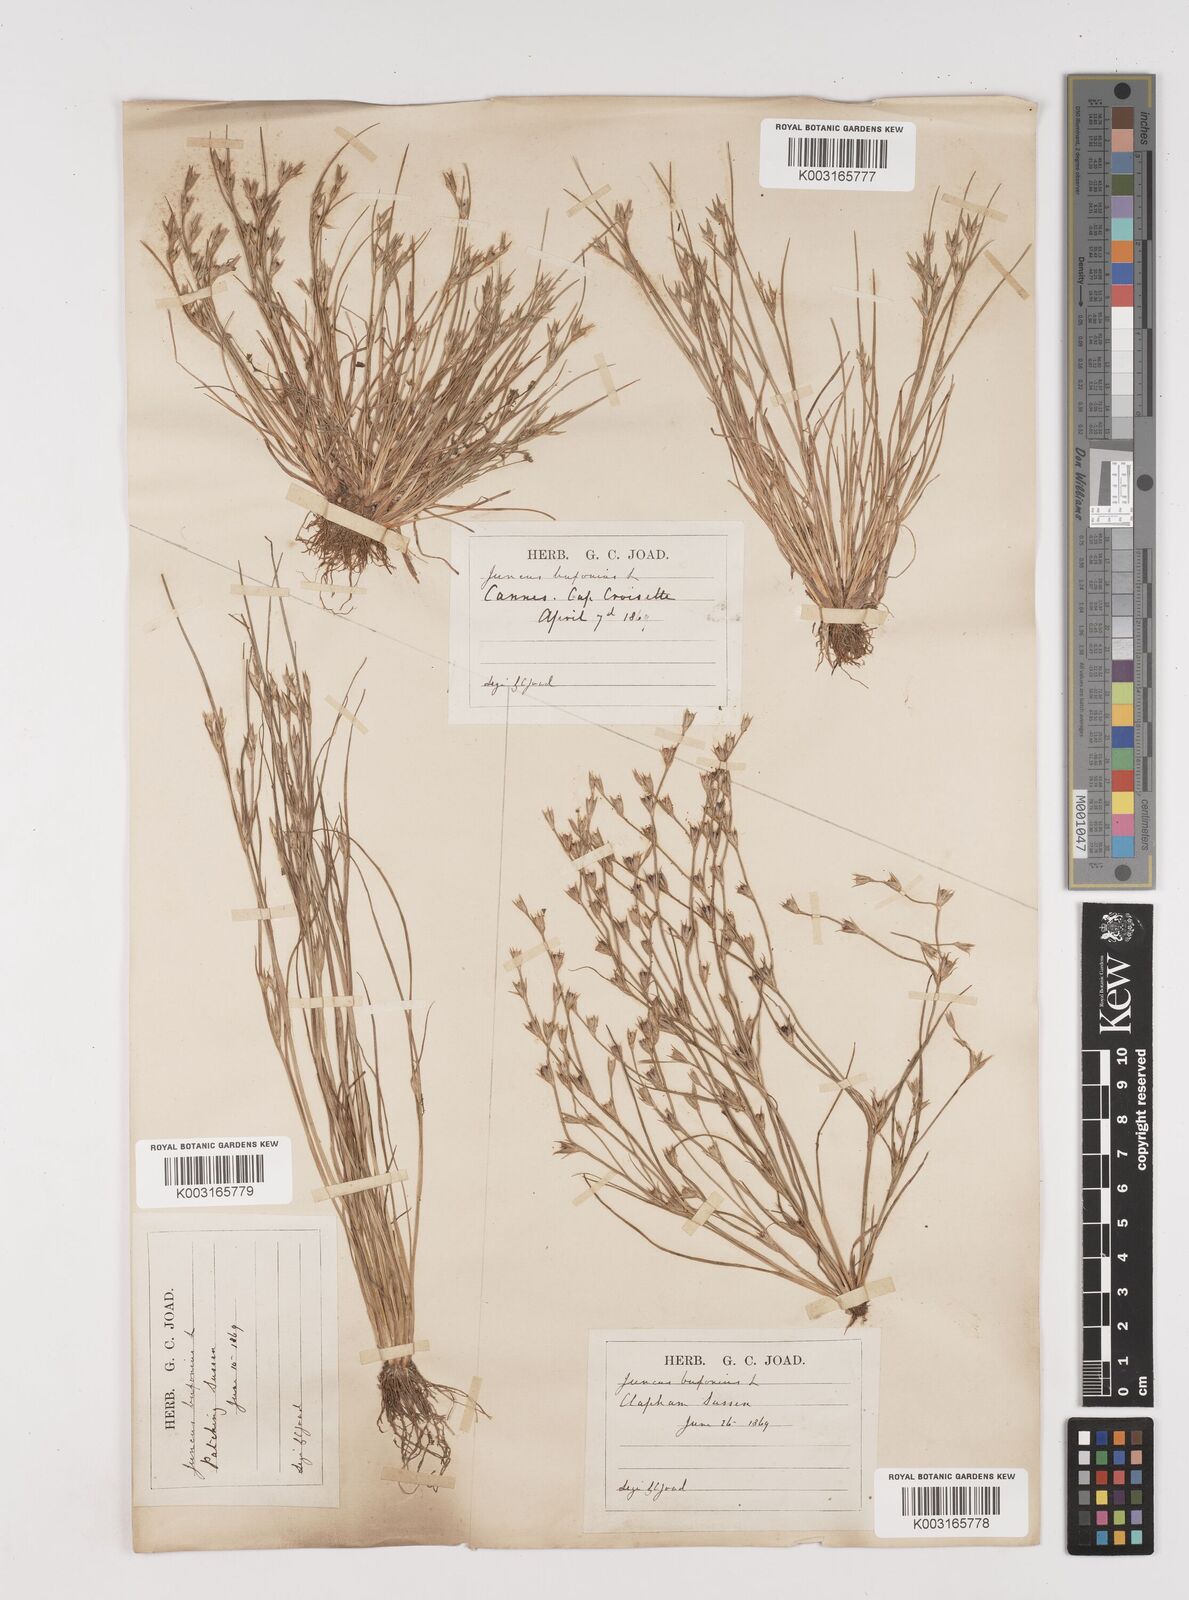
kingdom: Plantae
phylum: Tracheophyta
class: Liliopsida
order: Poales
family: Juncaceae
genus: Juncus
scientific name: Juncus bufonius
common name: Toad rush
